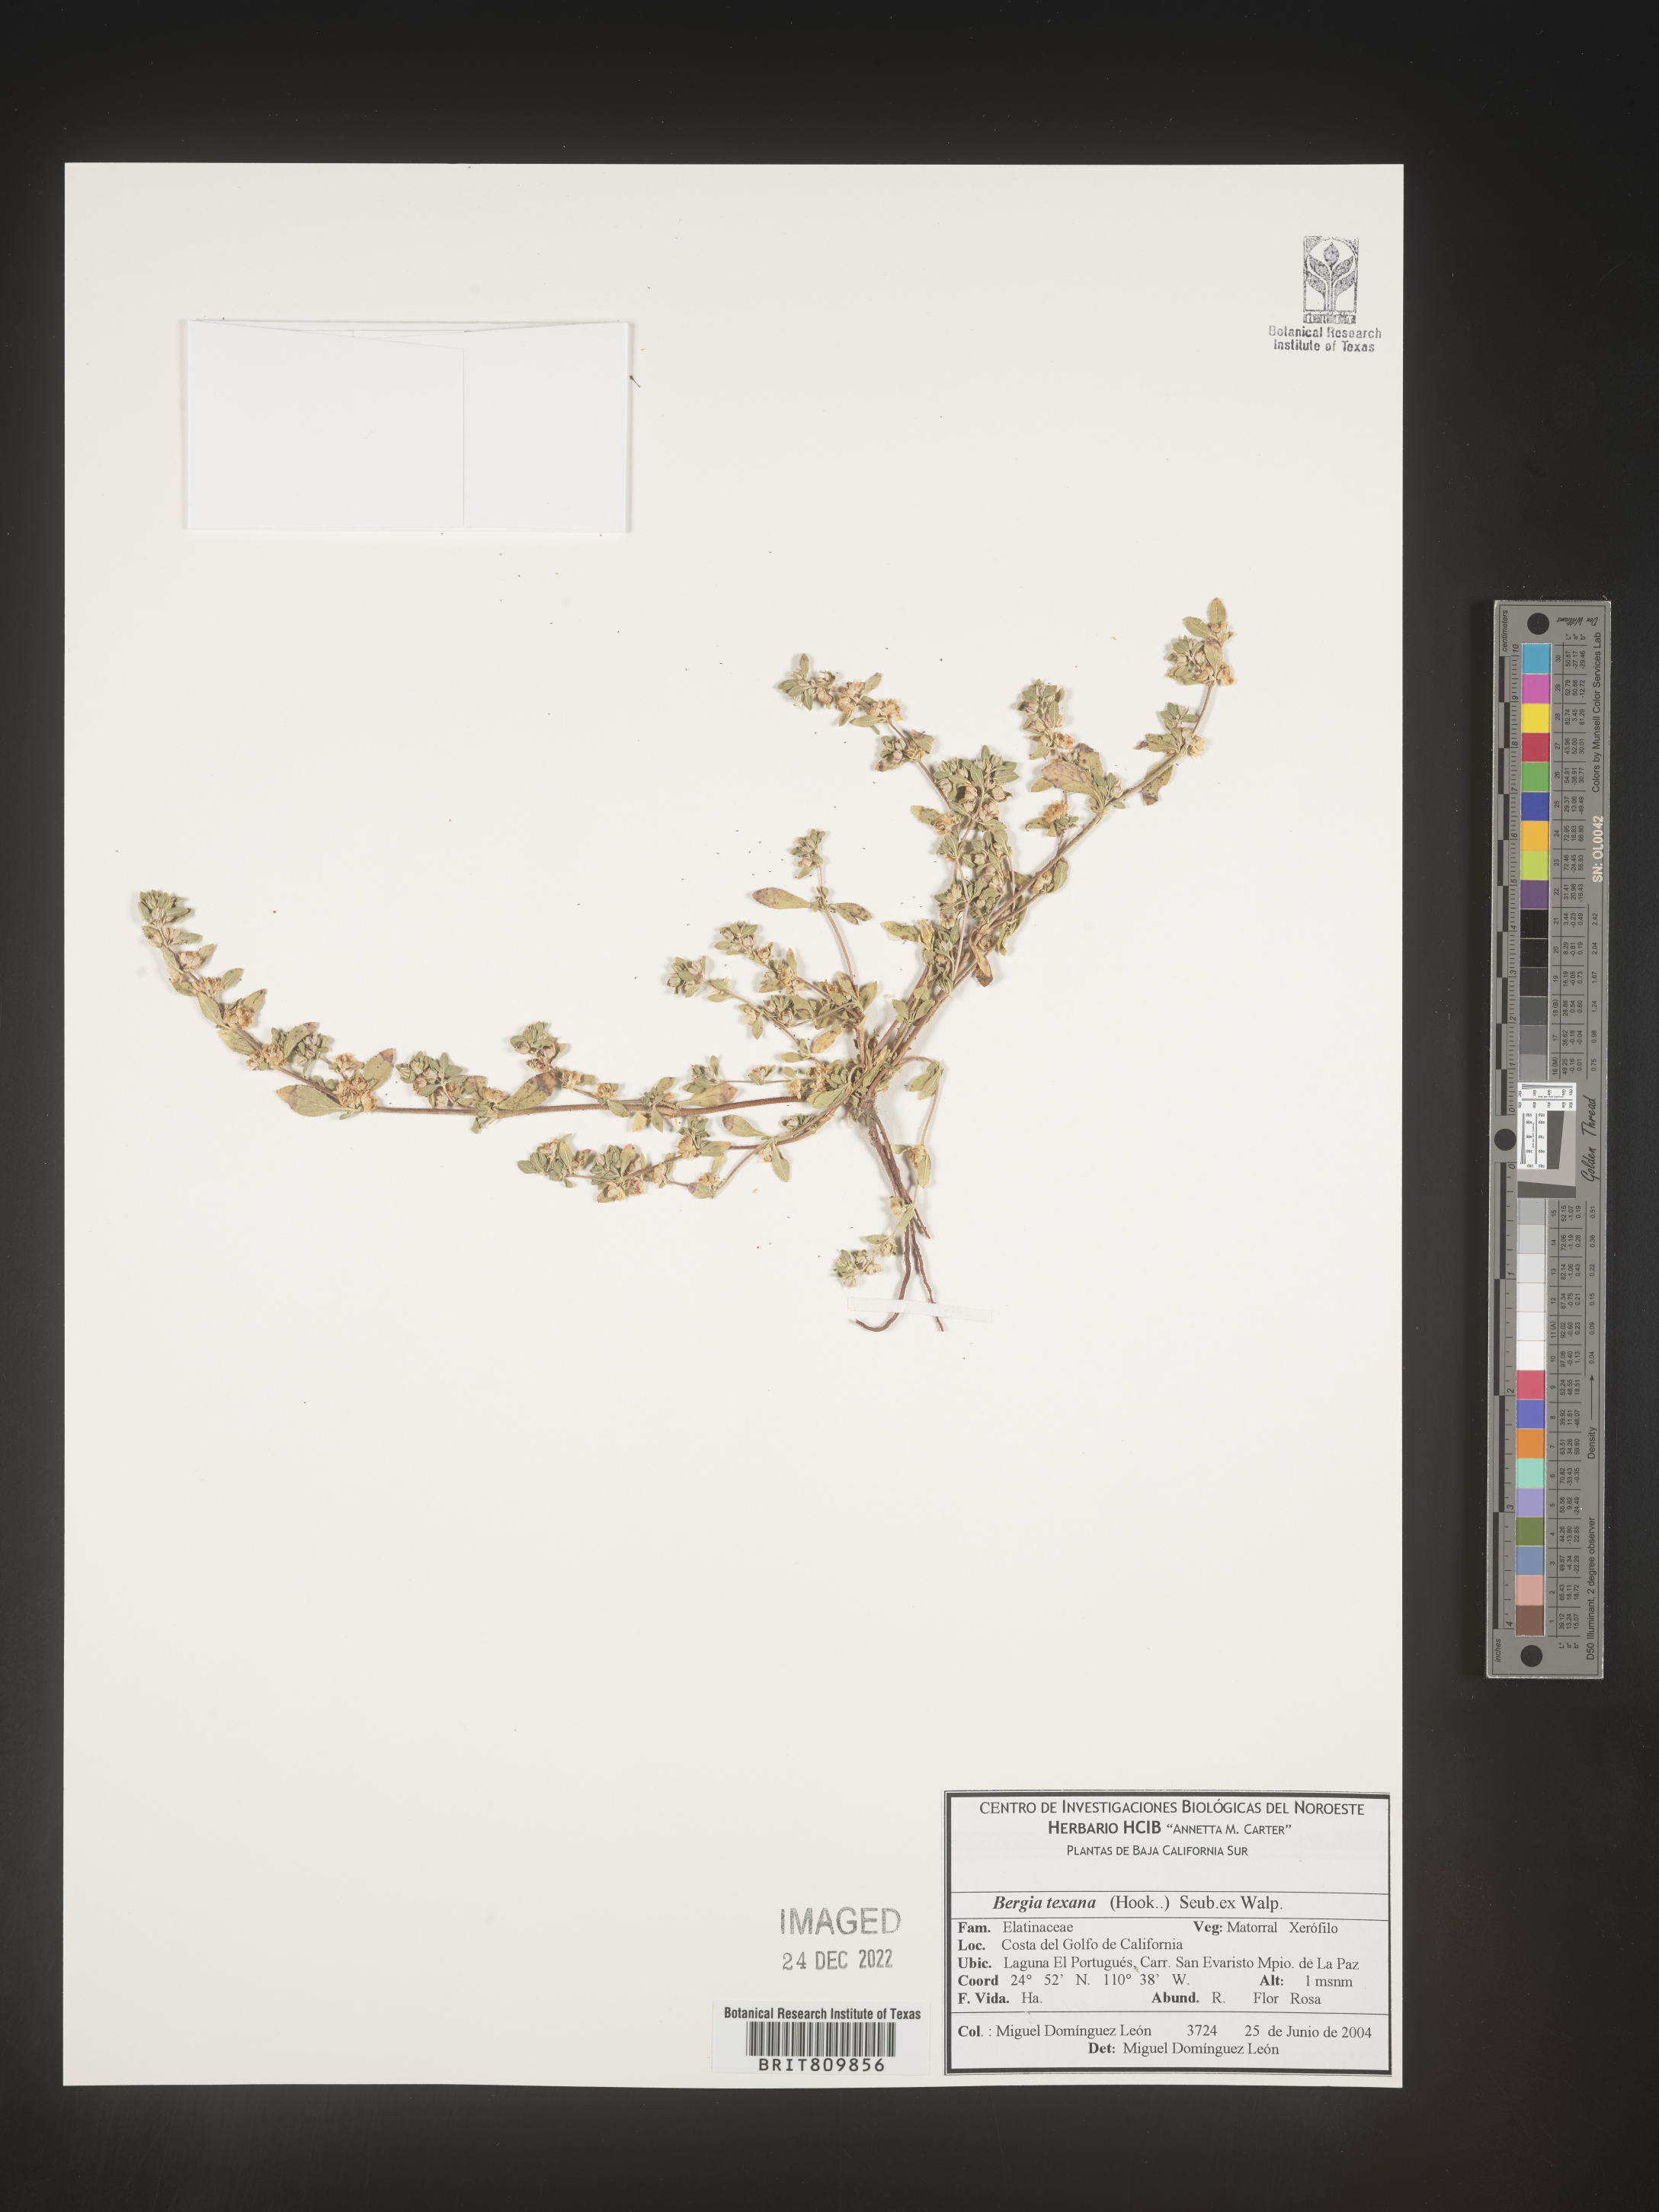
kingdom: Plantae
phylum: Tracheophyta
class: Magnoliopsida
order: Malpighiales
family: Elatinaceae
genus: Bergia
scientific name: Bergia
